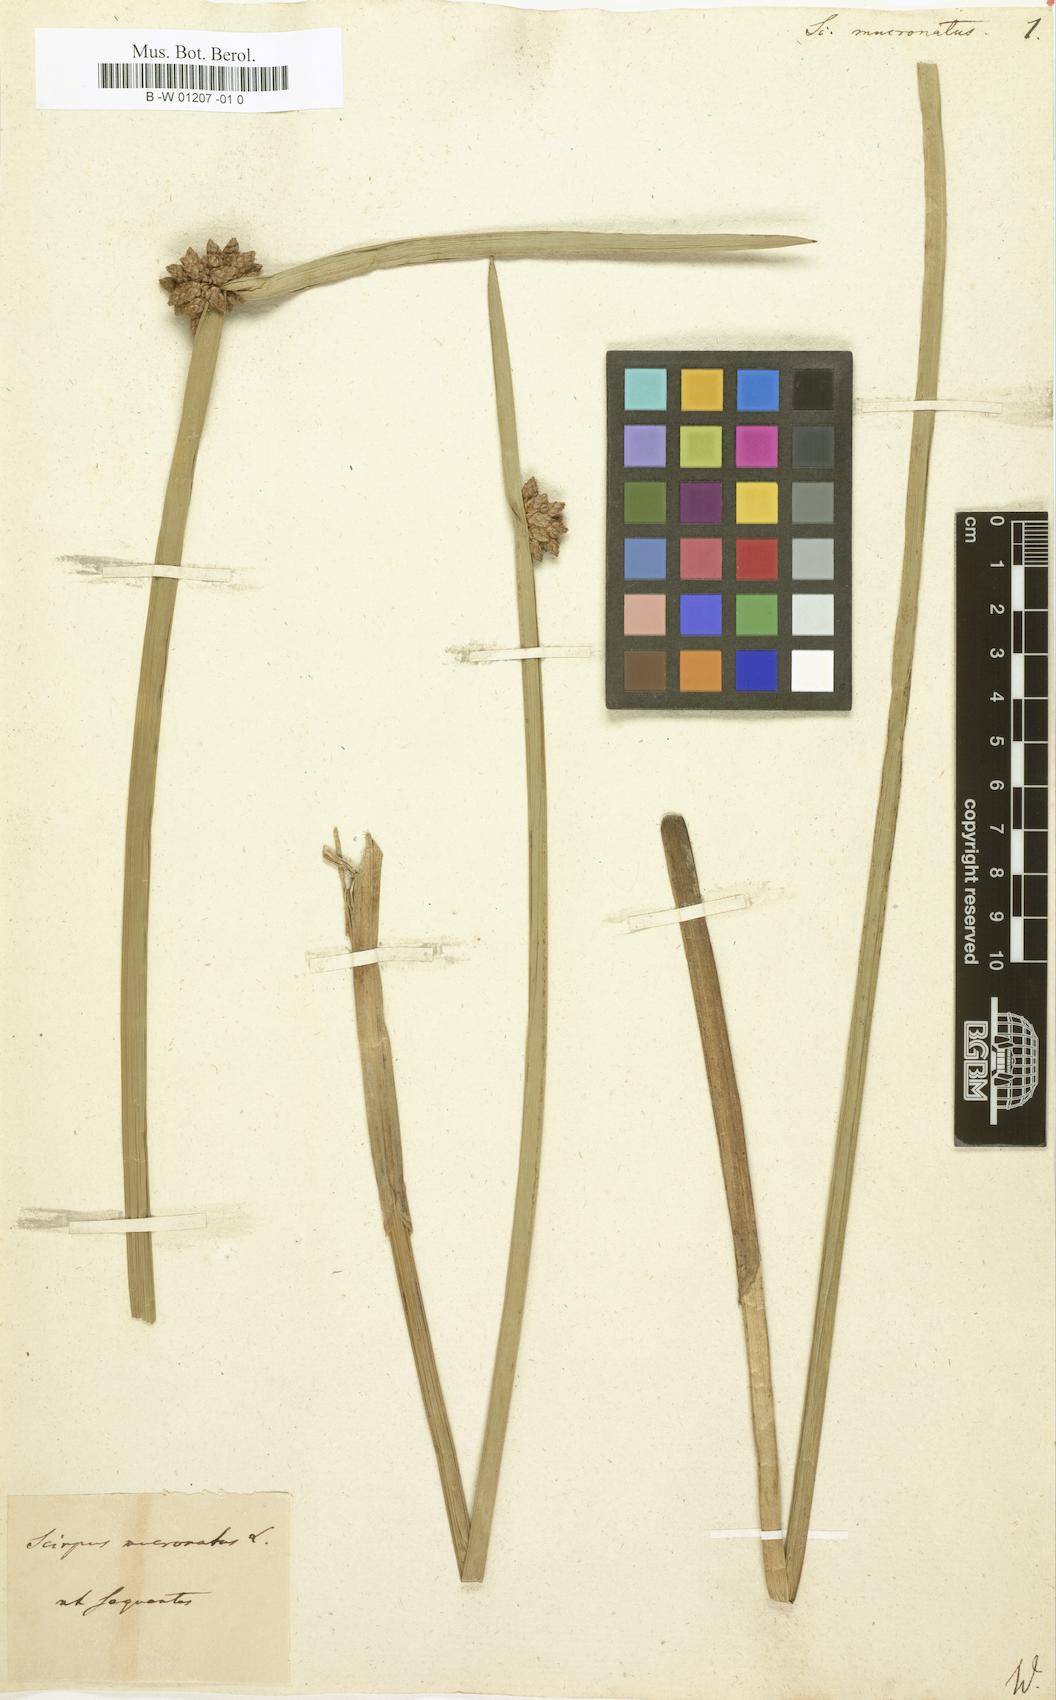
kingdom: Plantae
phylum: Tracheophyta
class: Liliopsida
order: Poales
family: Cyperaceae
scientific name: Cyperaceae
